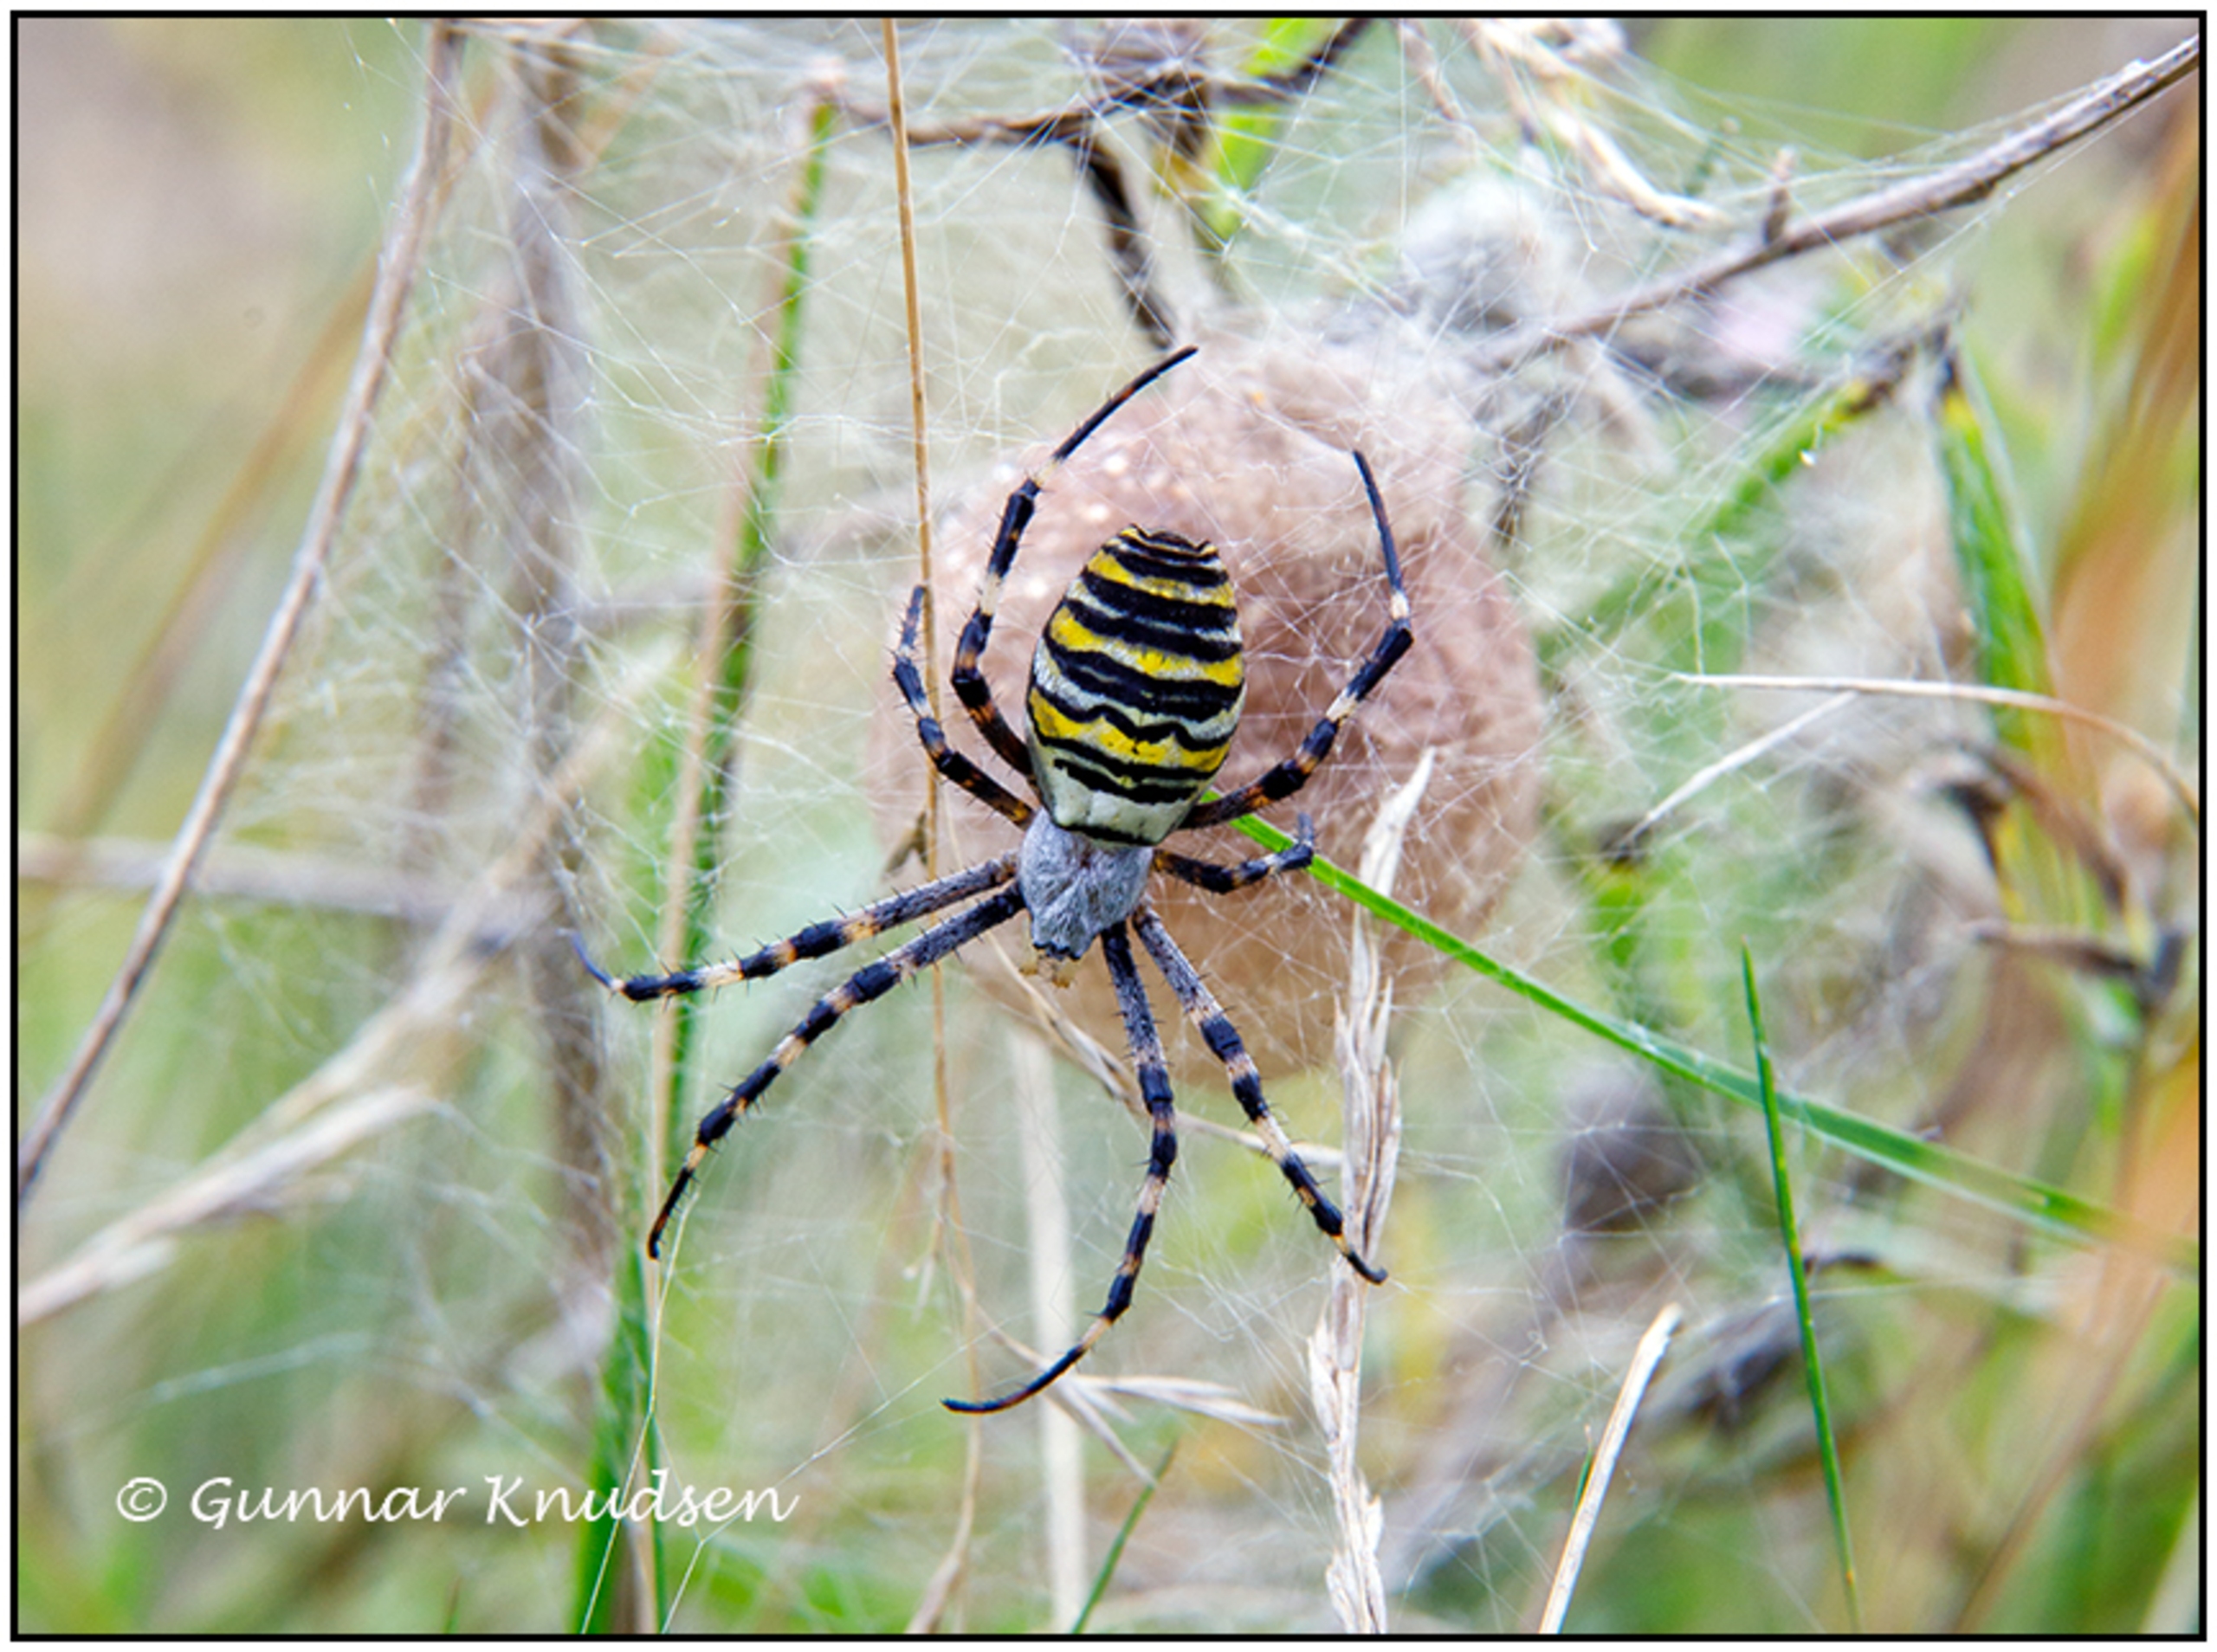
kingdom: Animalia
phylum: Arthropoda
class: Arachnida
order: Araneae
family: Araneidae
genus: Argiope
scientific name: Argiope bruennichi
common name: Hvepseedderkop
